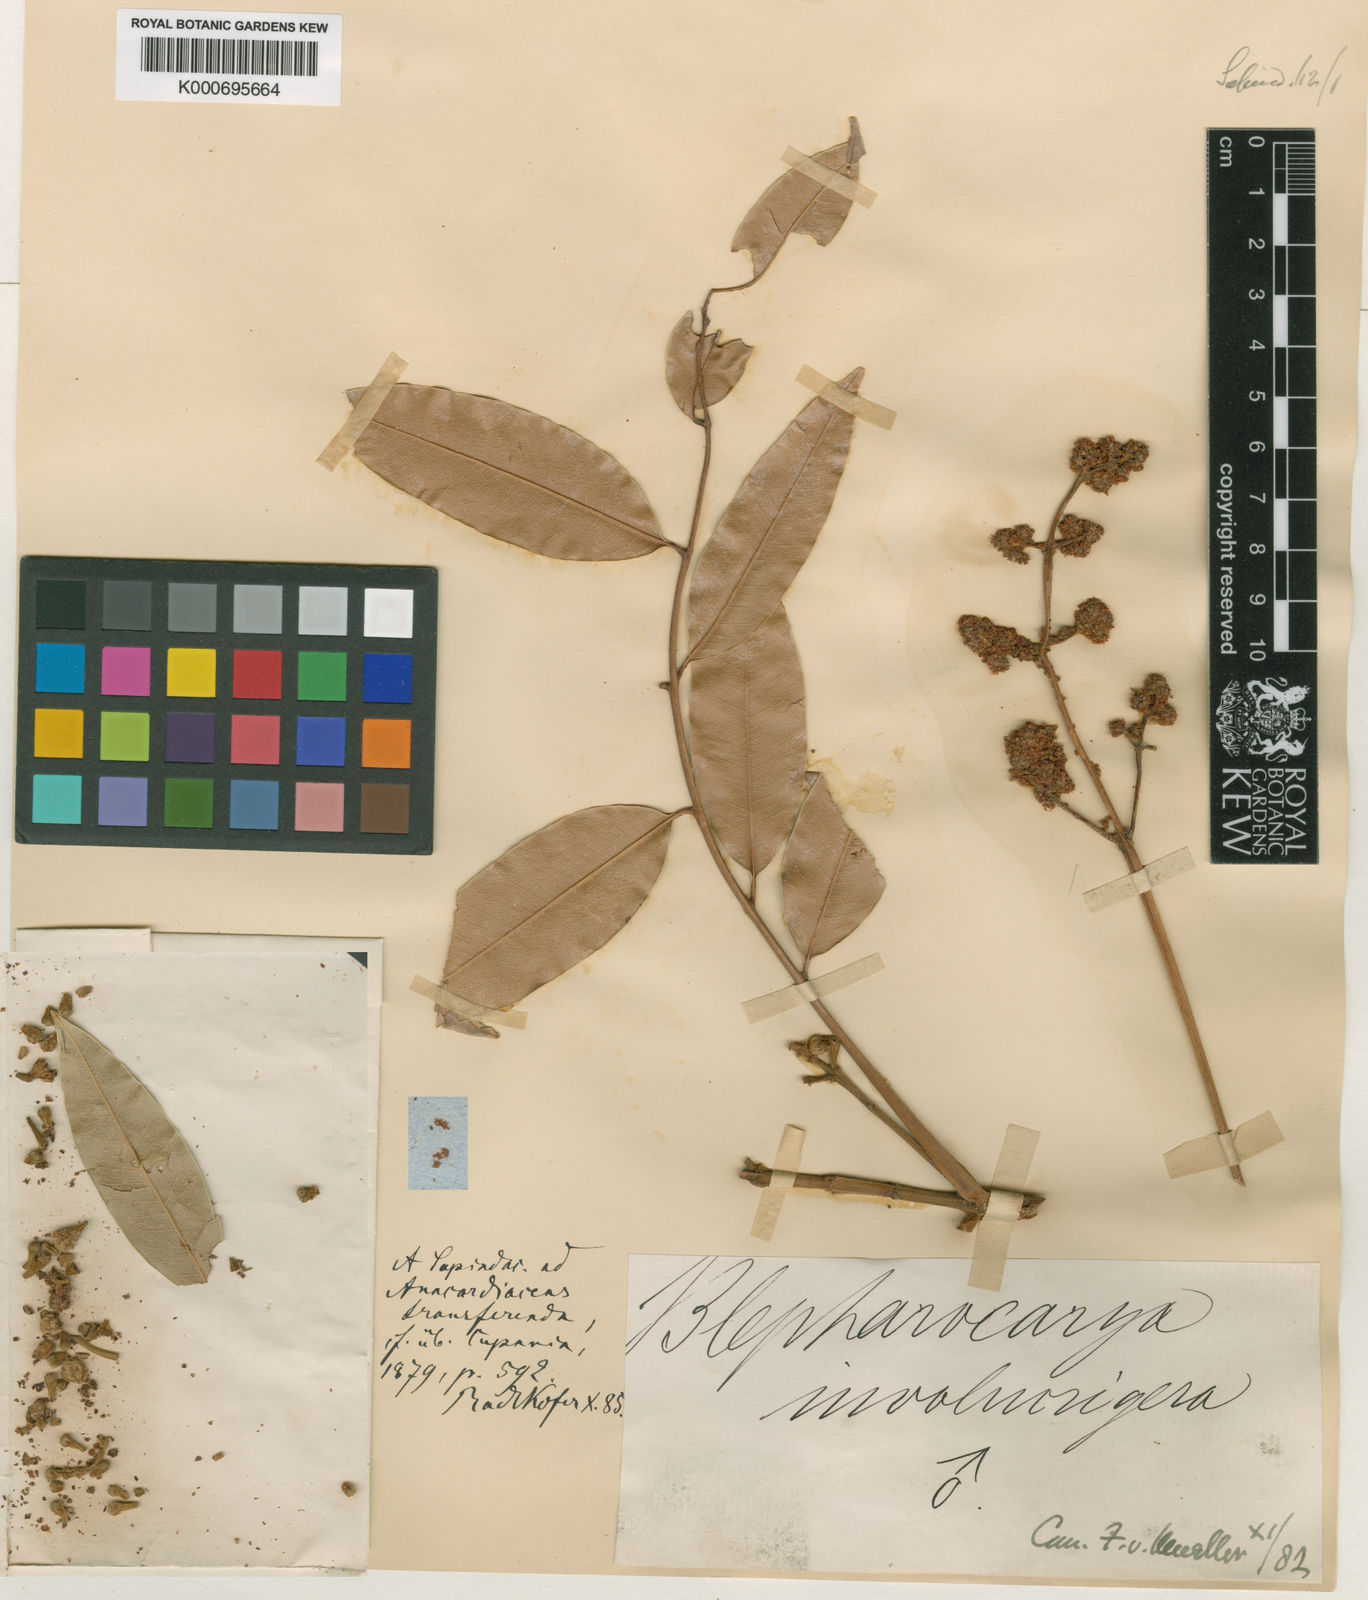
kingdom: Plantae
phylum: Tracheophyta
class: Magnoliopsida
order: Sapindales
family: Anacardiaceae
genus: Blepharocarya
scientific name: Blepharocarya involucrigera
